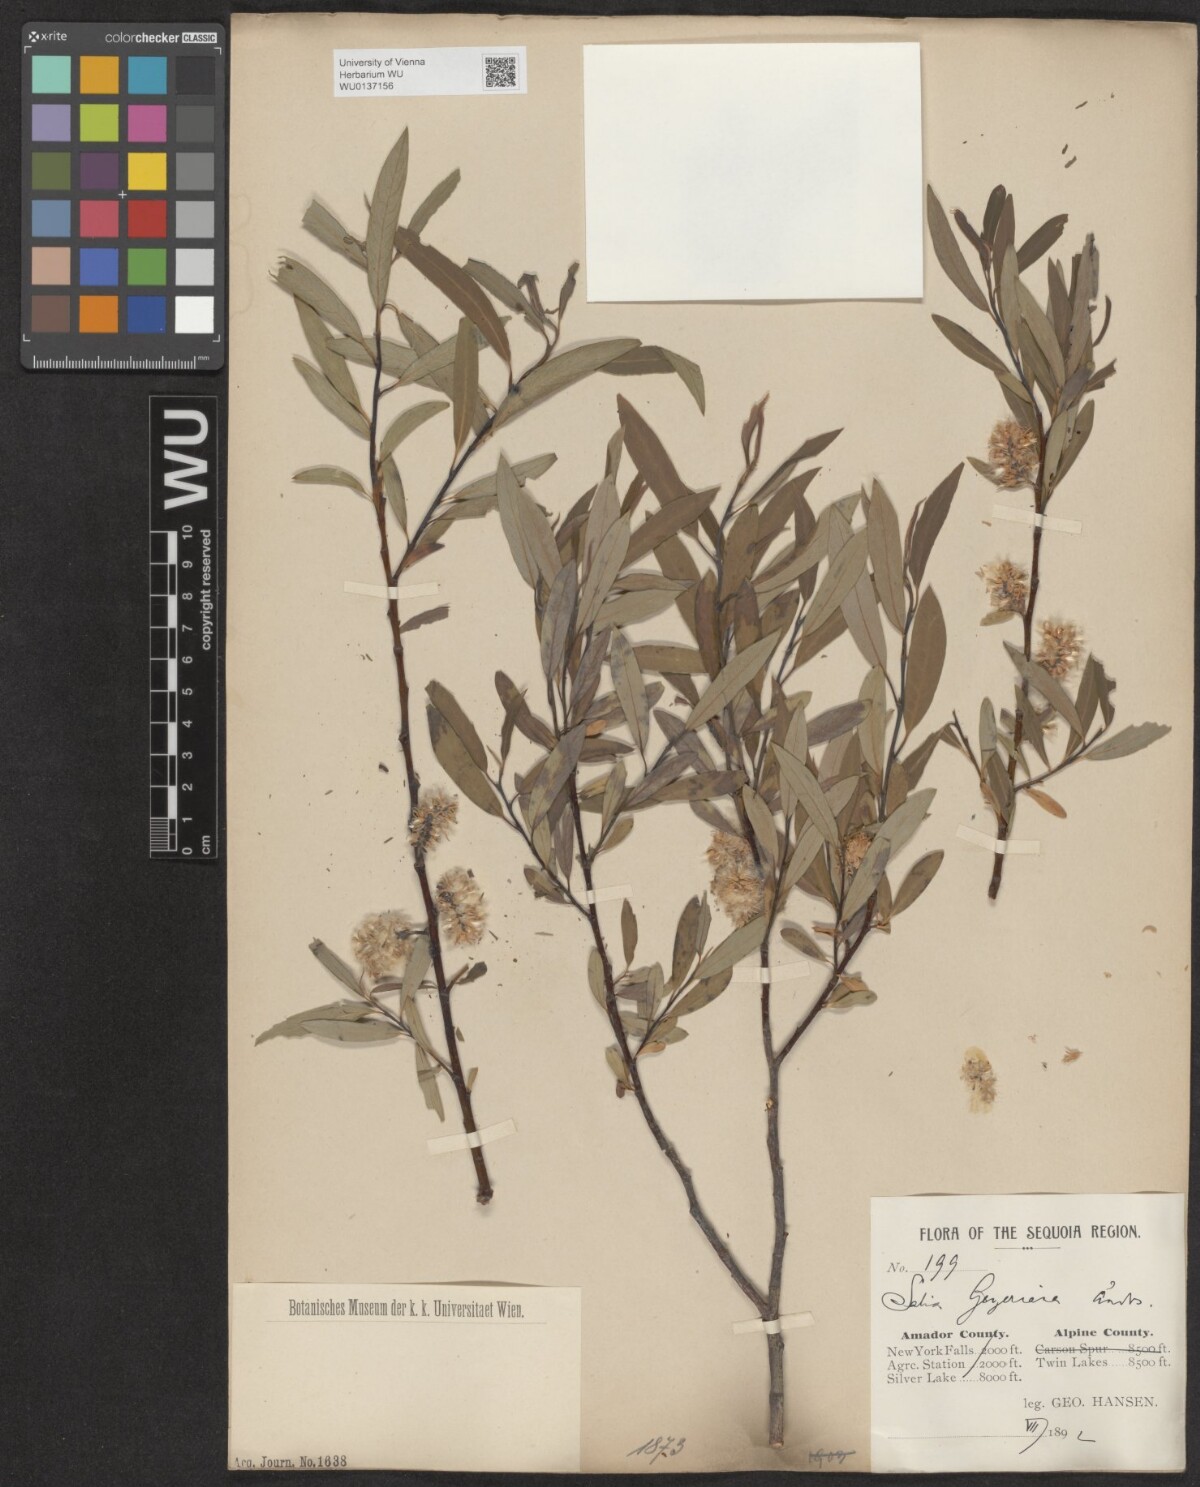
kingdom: Plantae
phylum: Tracheophyta
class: Magnoliopsida
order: Malpighiales
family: Salicaceae
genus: Salix
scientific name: Salix geyeriana
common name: Geyer's willow
